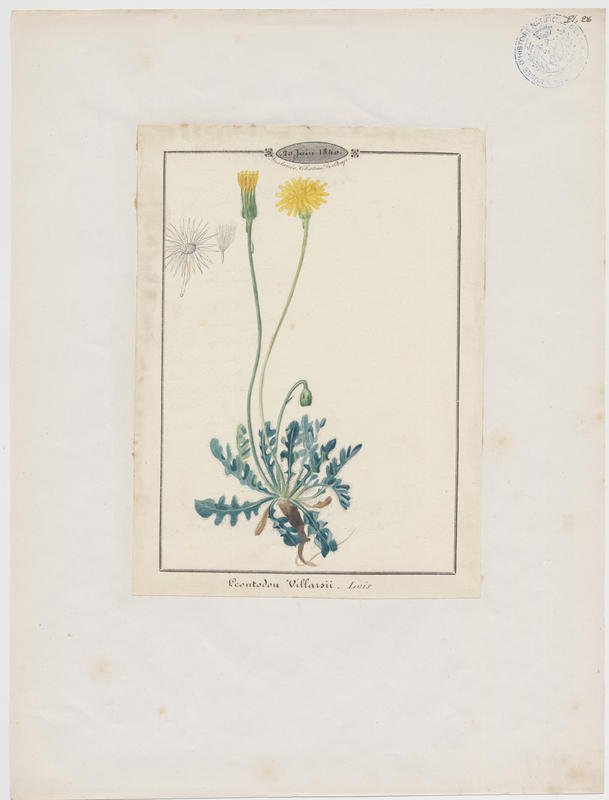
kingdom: Plantae
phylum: Tracheophyta
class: Magnoliopsida
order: Asterales
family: Asteraceae
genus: Leontodon
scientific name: Leontodon hirtus
